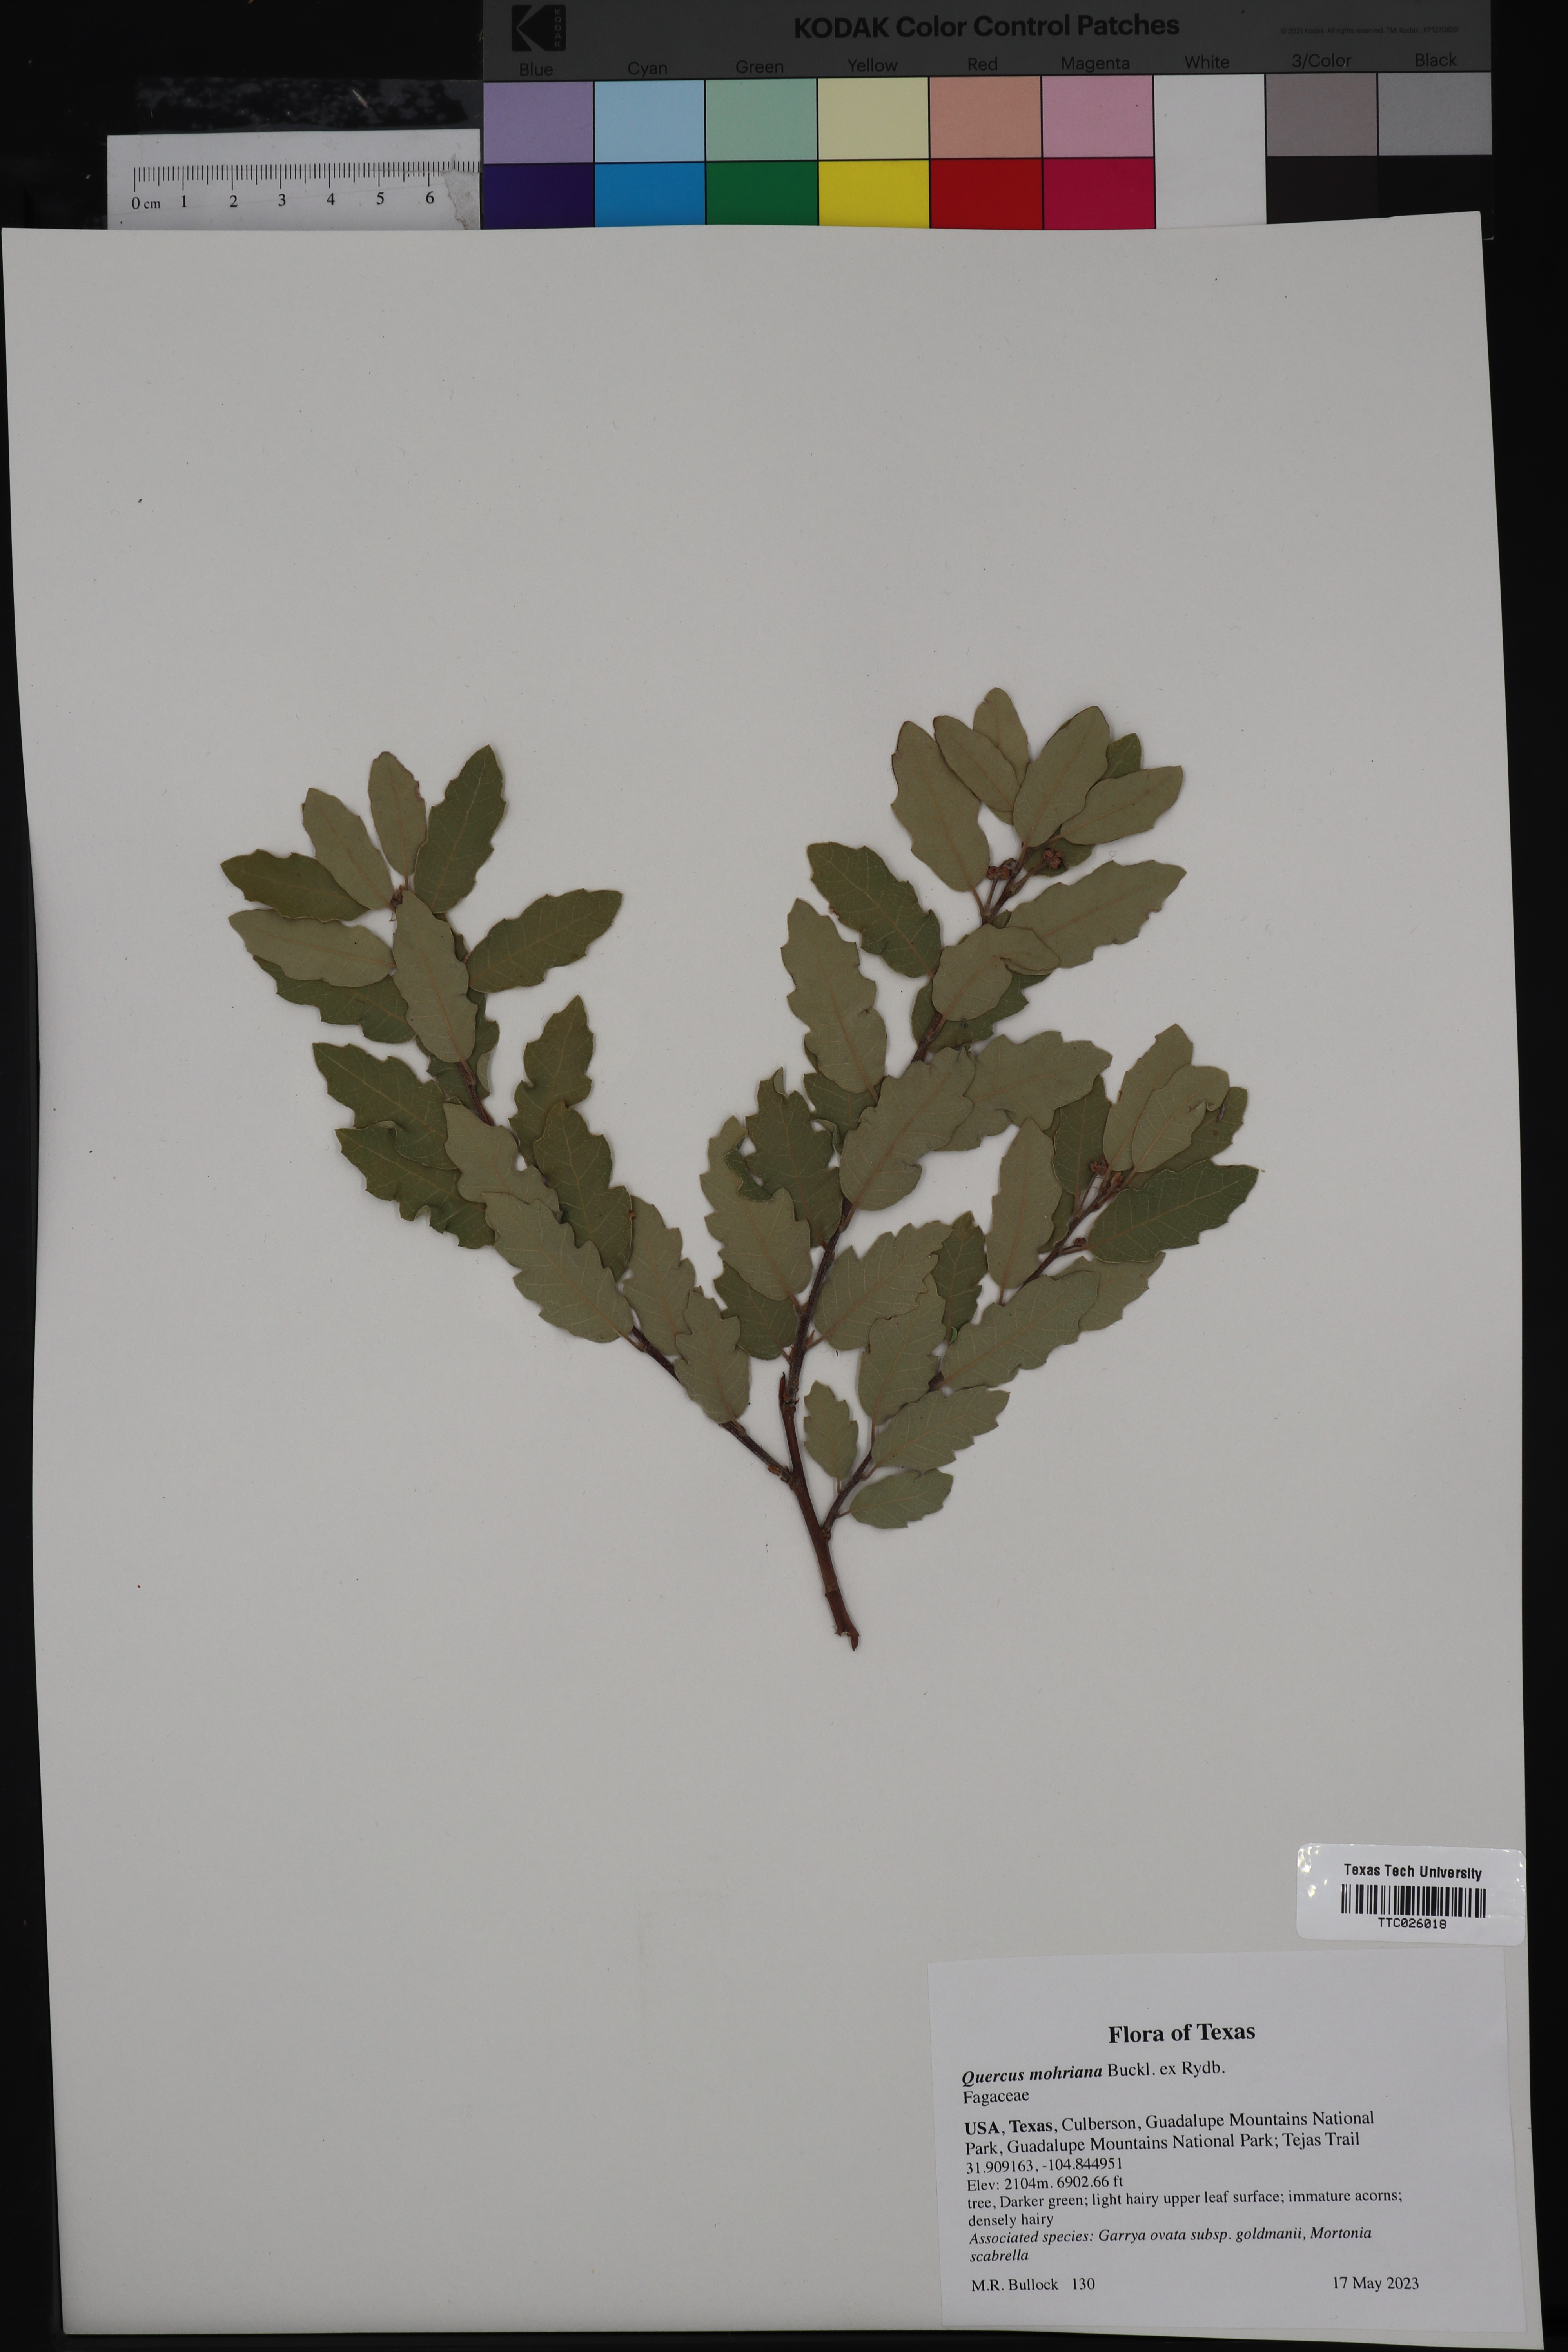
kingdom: Plantae
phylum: Tracheophyta
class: Magnoliopsida
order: Fagales
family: Fagaceae
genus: Quercus
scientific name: Quercus mohriana
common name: Mohr oak
